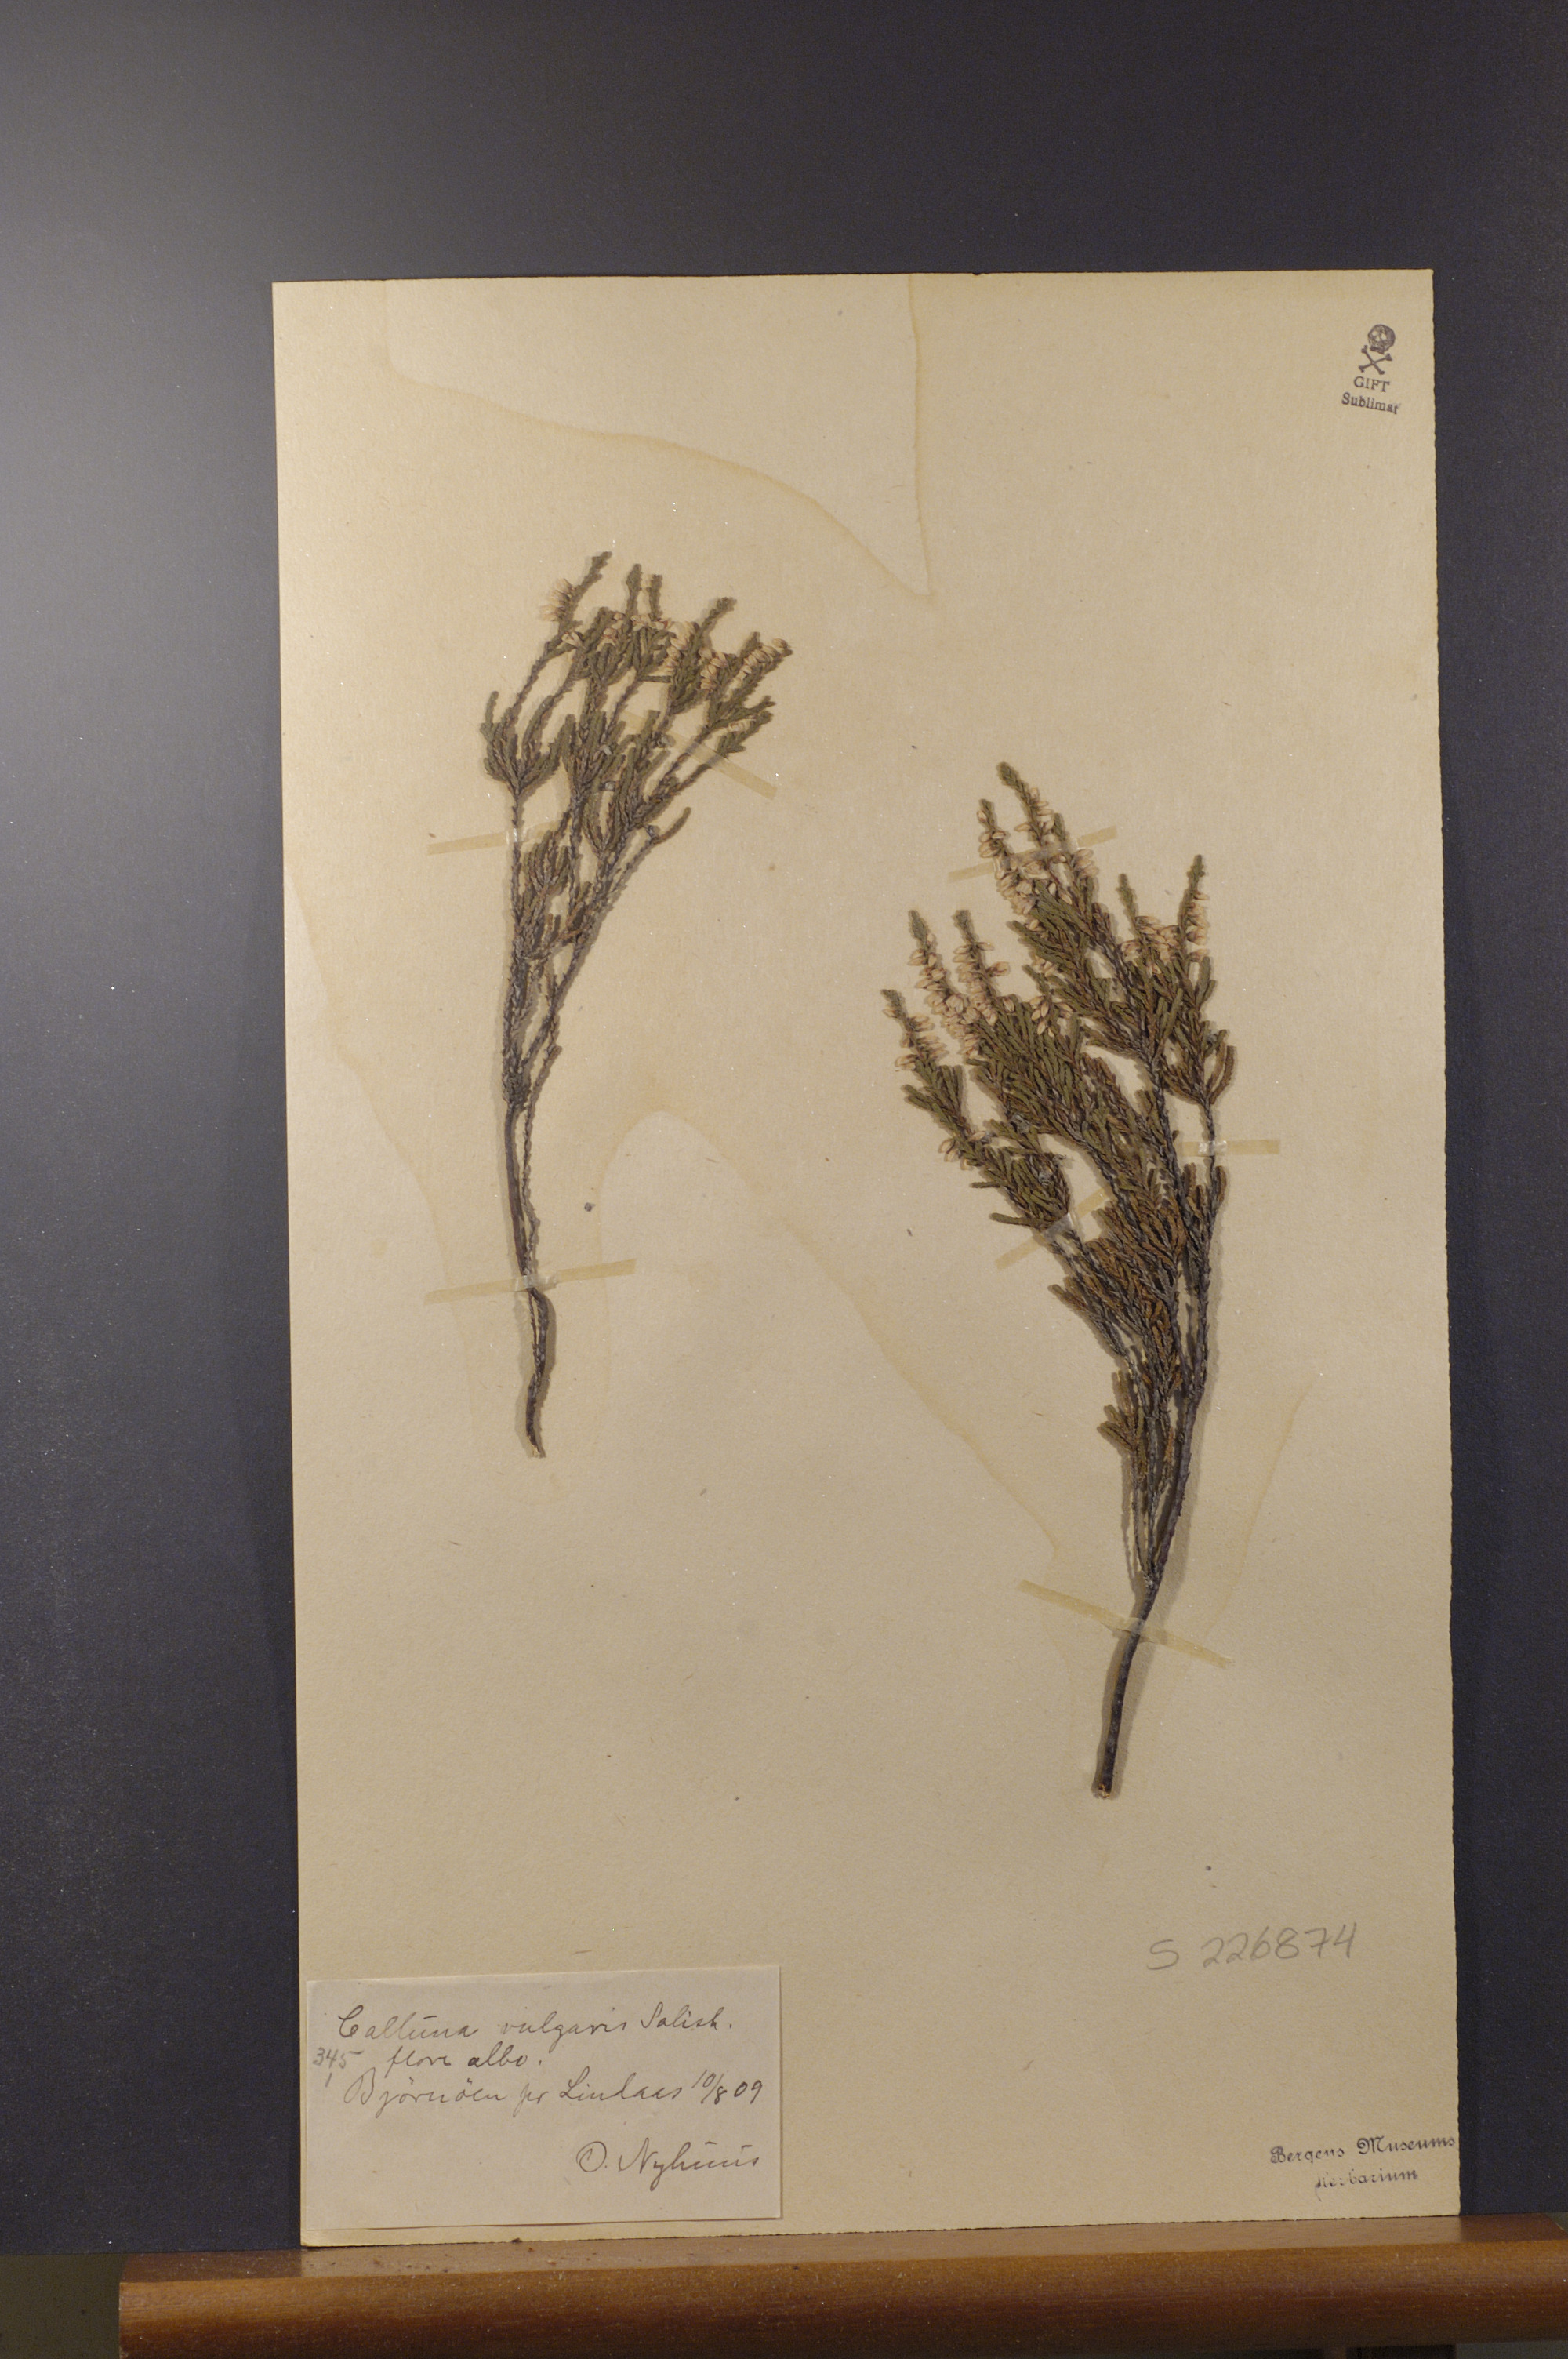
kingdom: Plantae
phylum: Tracheophyta
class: Magnoliopsida
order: Ericales
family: Ericaceae
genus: Calluna
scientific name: Calluna vulgaris
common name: Heather
